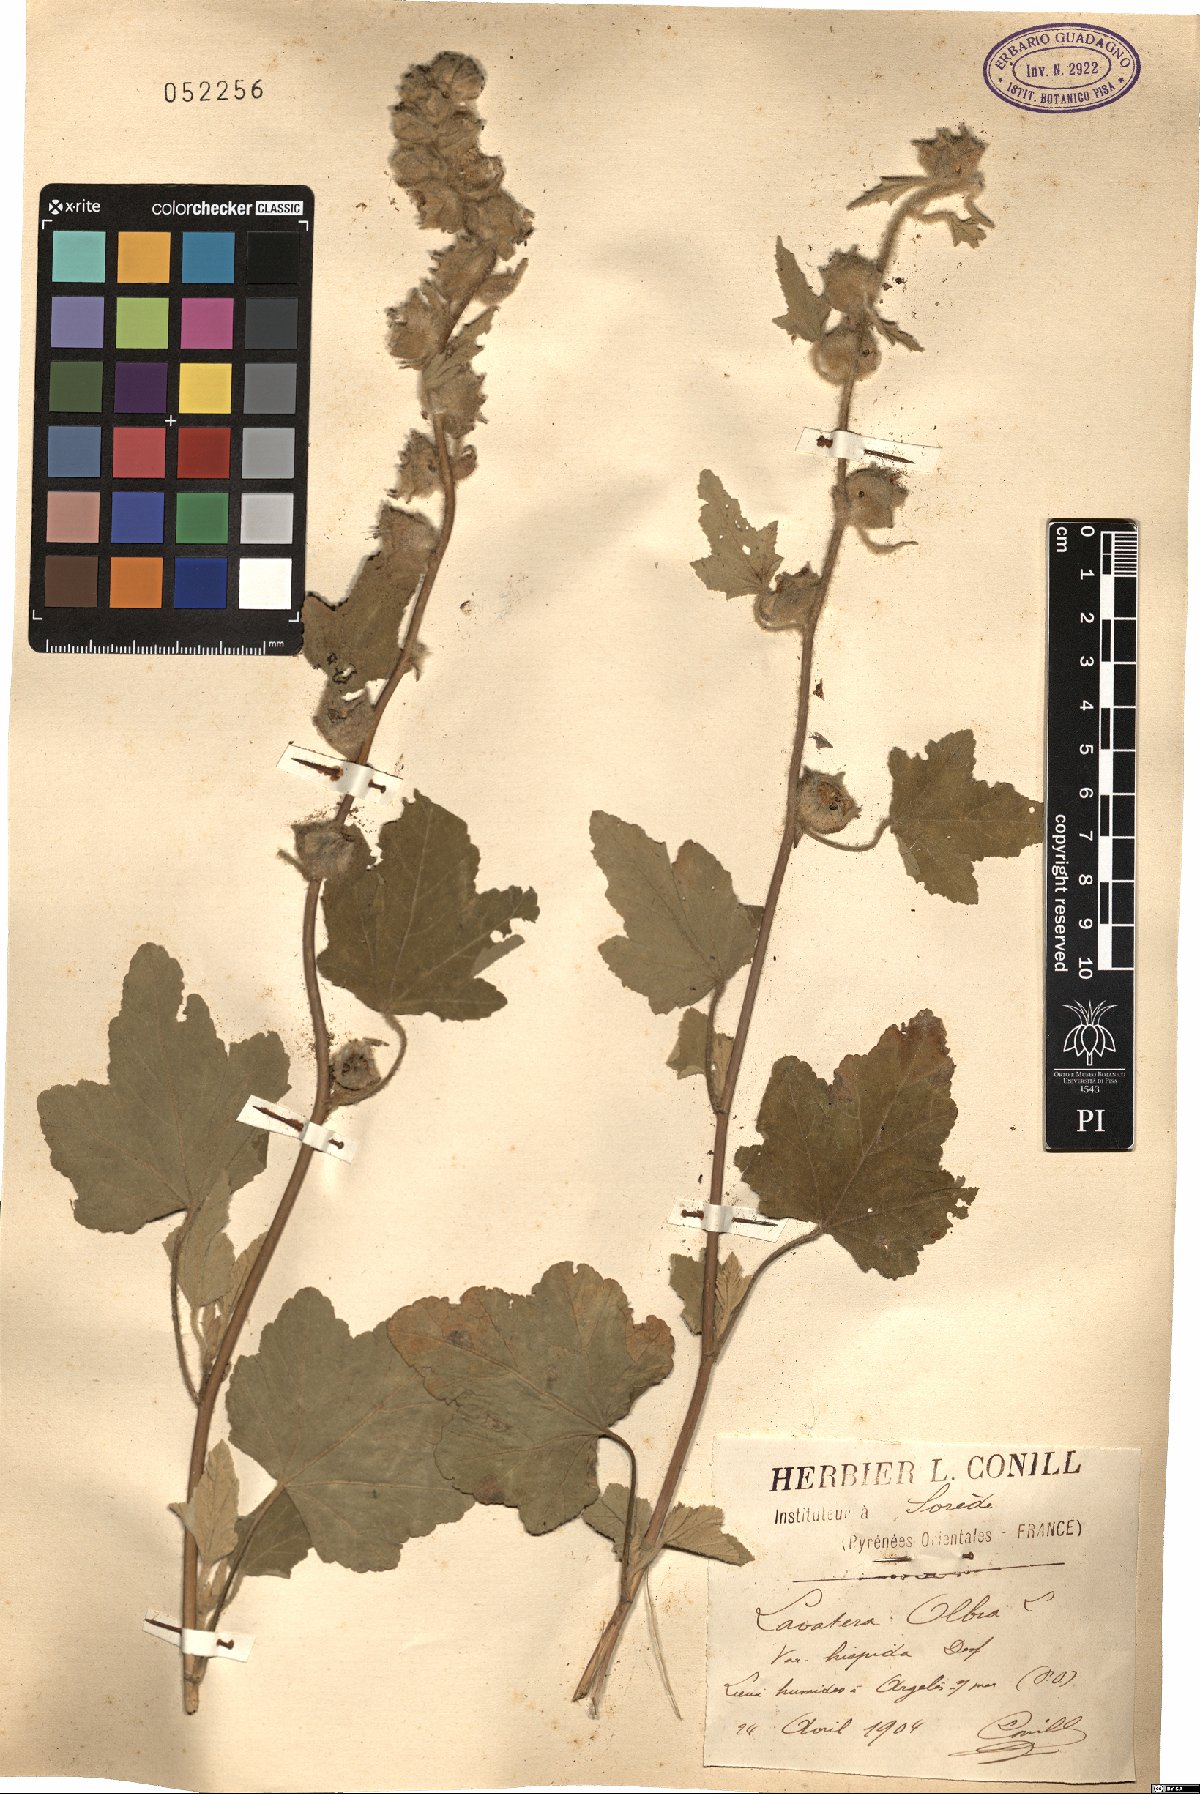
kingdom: Plantae
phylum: Tracheophyta
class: Magnoliopsida
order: Malvales
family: Malvaceae
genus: Malva
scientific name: Malva olbia
